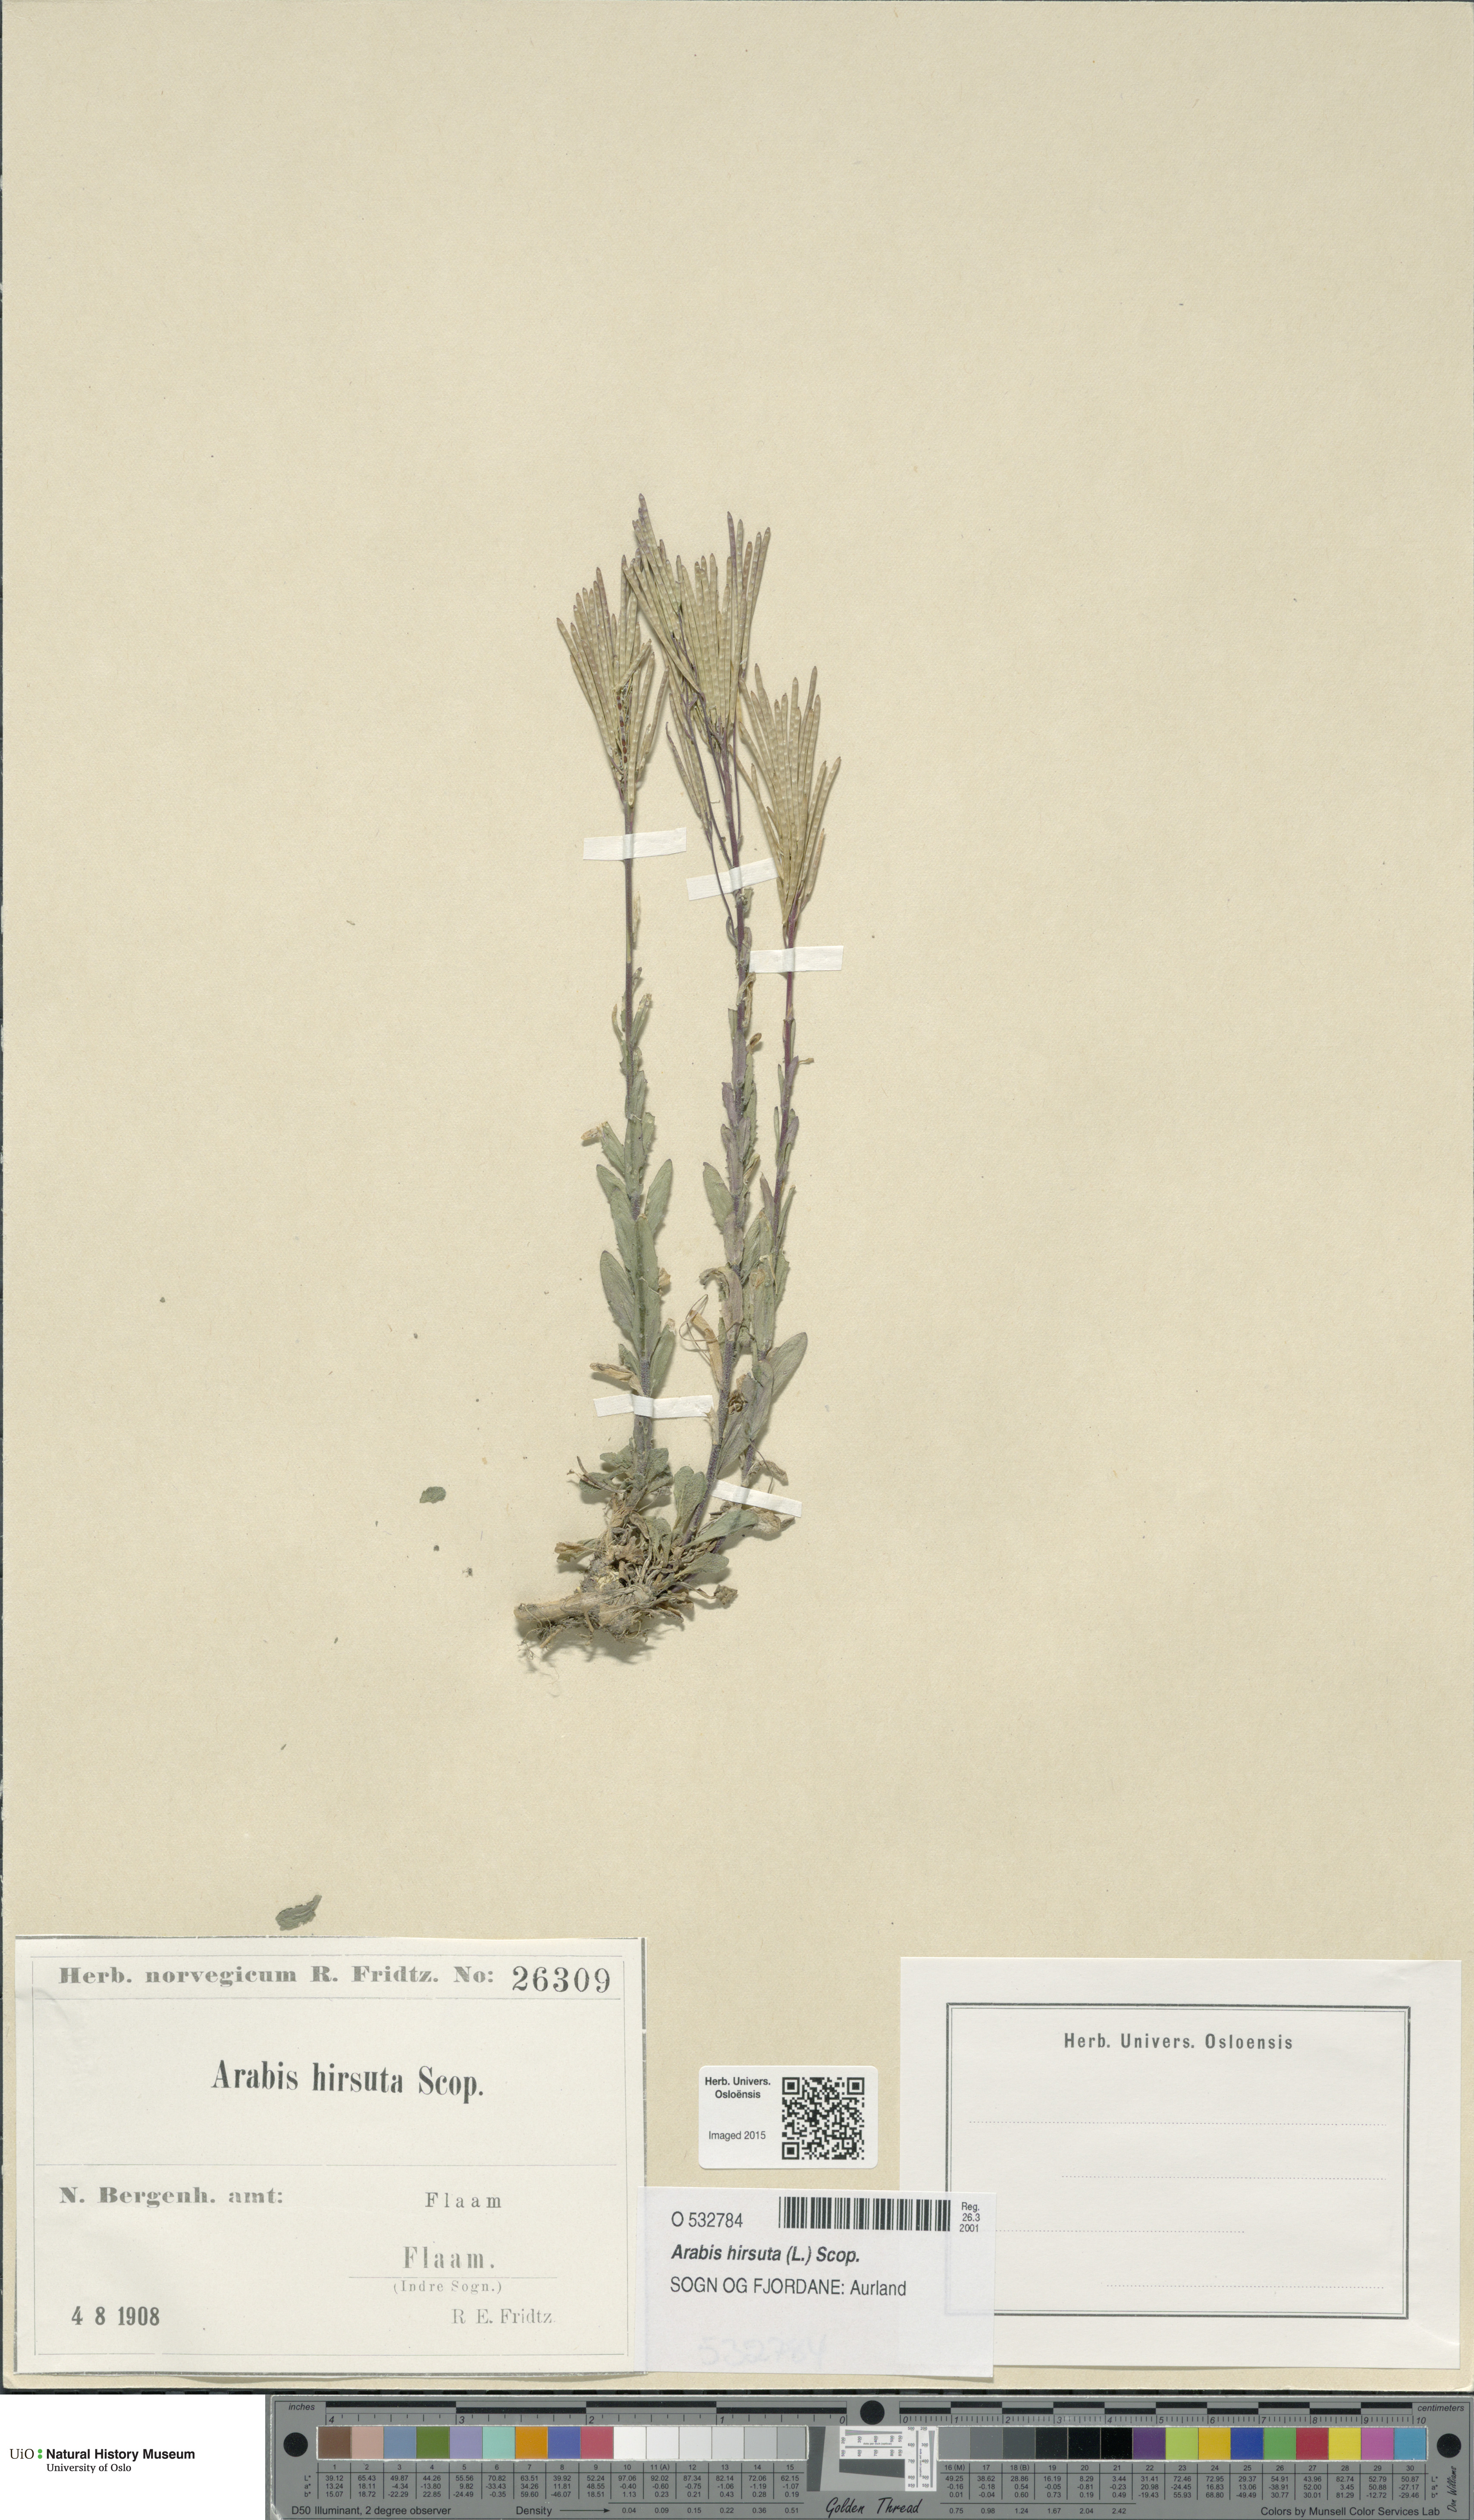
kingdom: Plantae
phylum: Tracheophyta
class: Magnoliopsida
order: Brassicales
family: Brassicaceae
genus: Arabis
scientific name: Arabis hirsuta
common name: Hairy rock-cress
